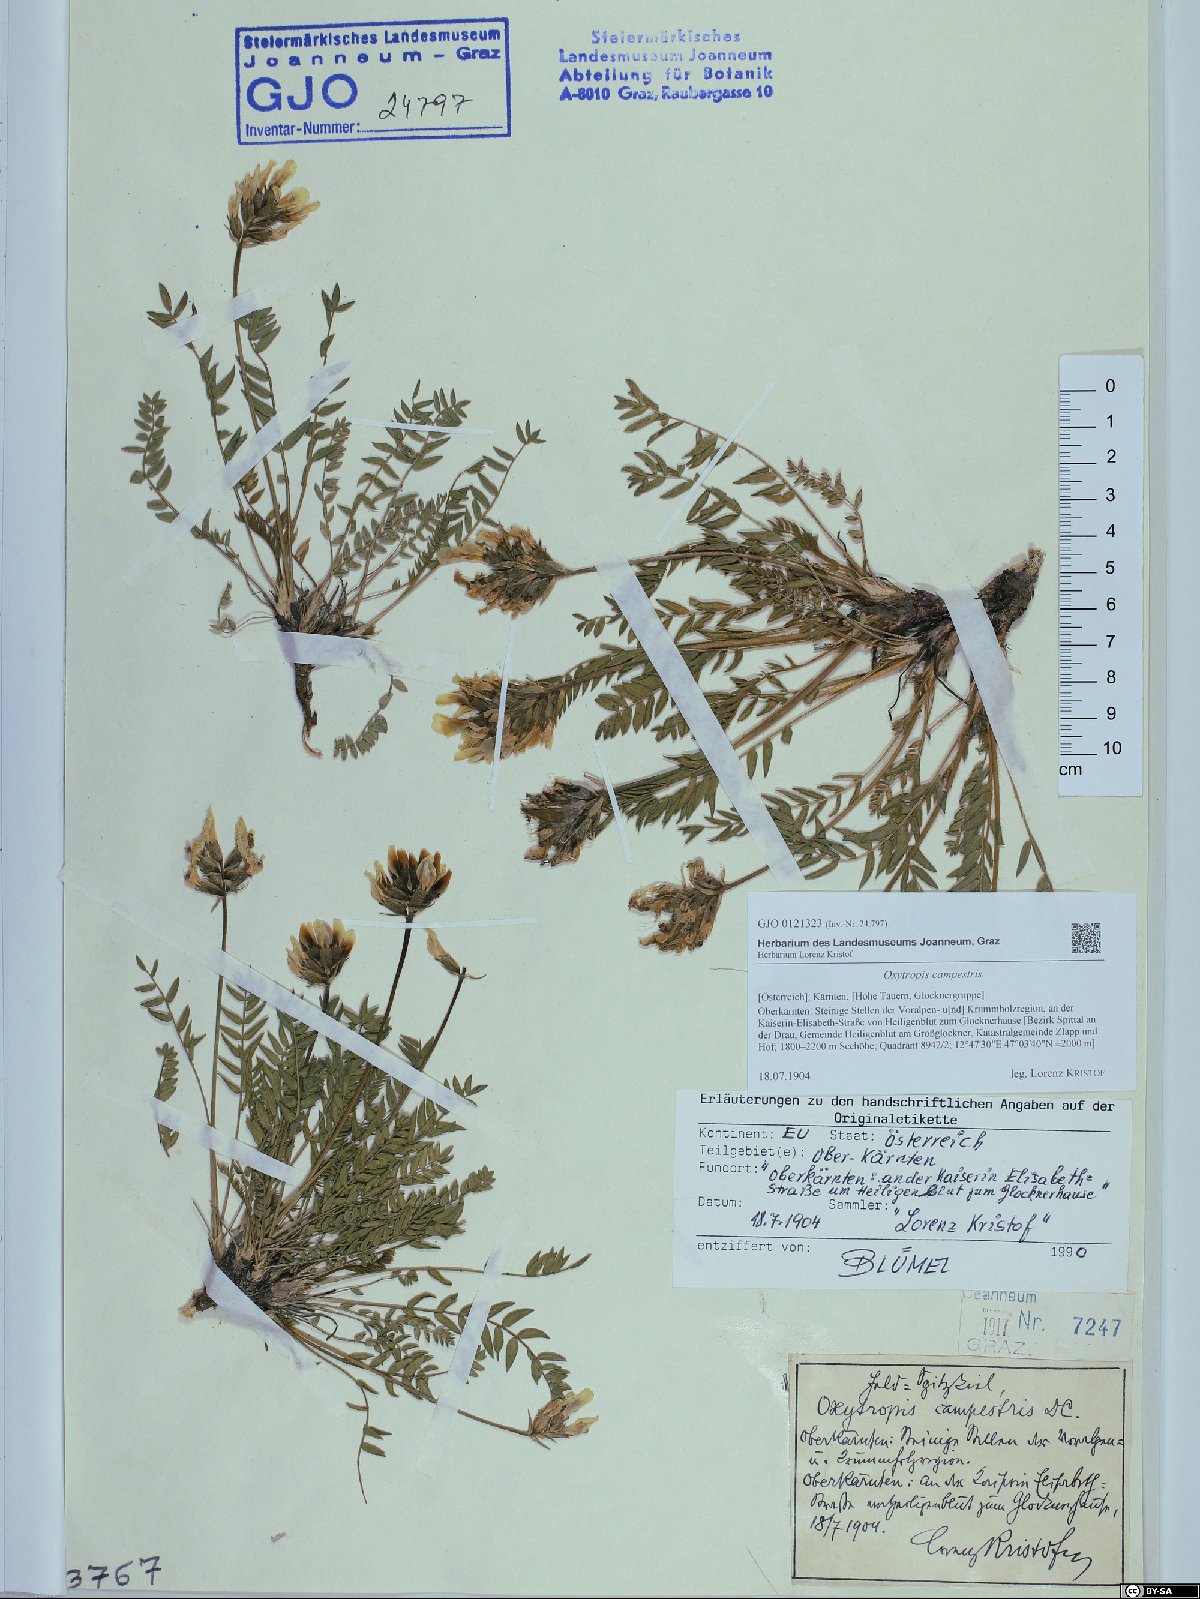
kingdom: Plantae
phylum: Tracheophyta
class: Magnoliopsida
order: Fabales
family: Fabaceae
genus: Oxytropis
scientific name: Oxytropis campestris
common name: Field locoweed
